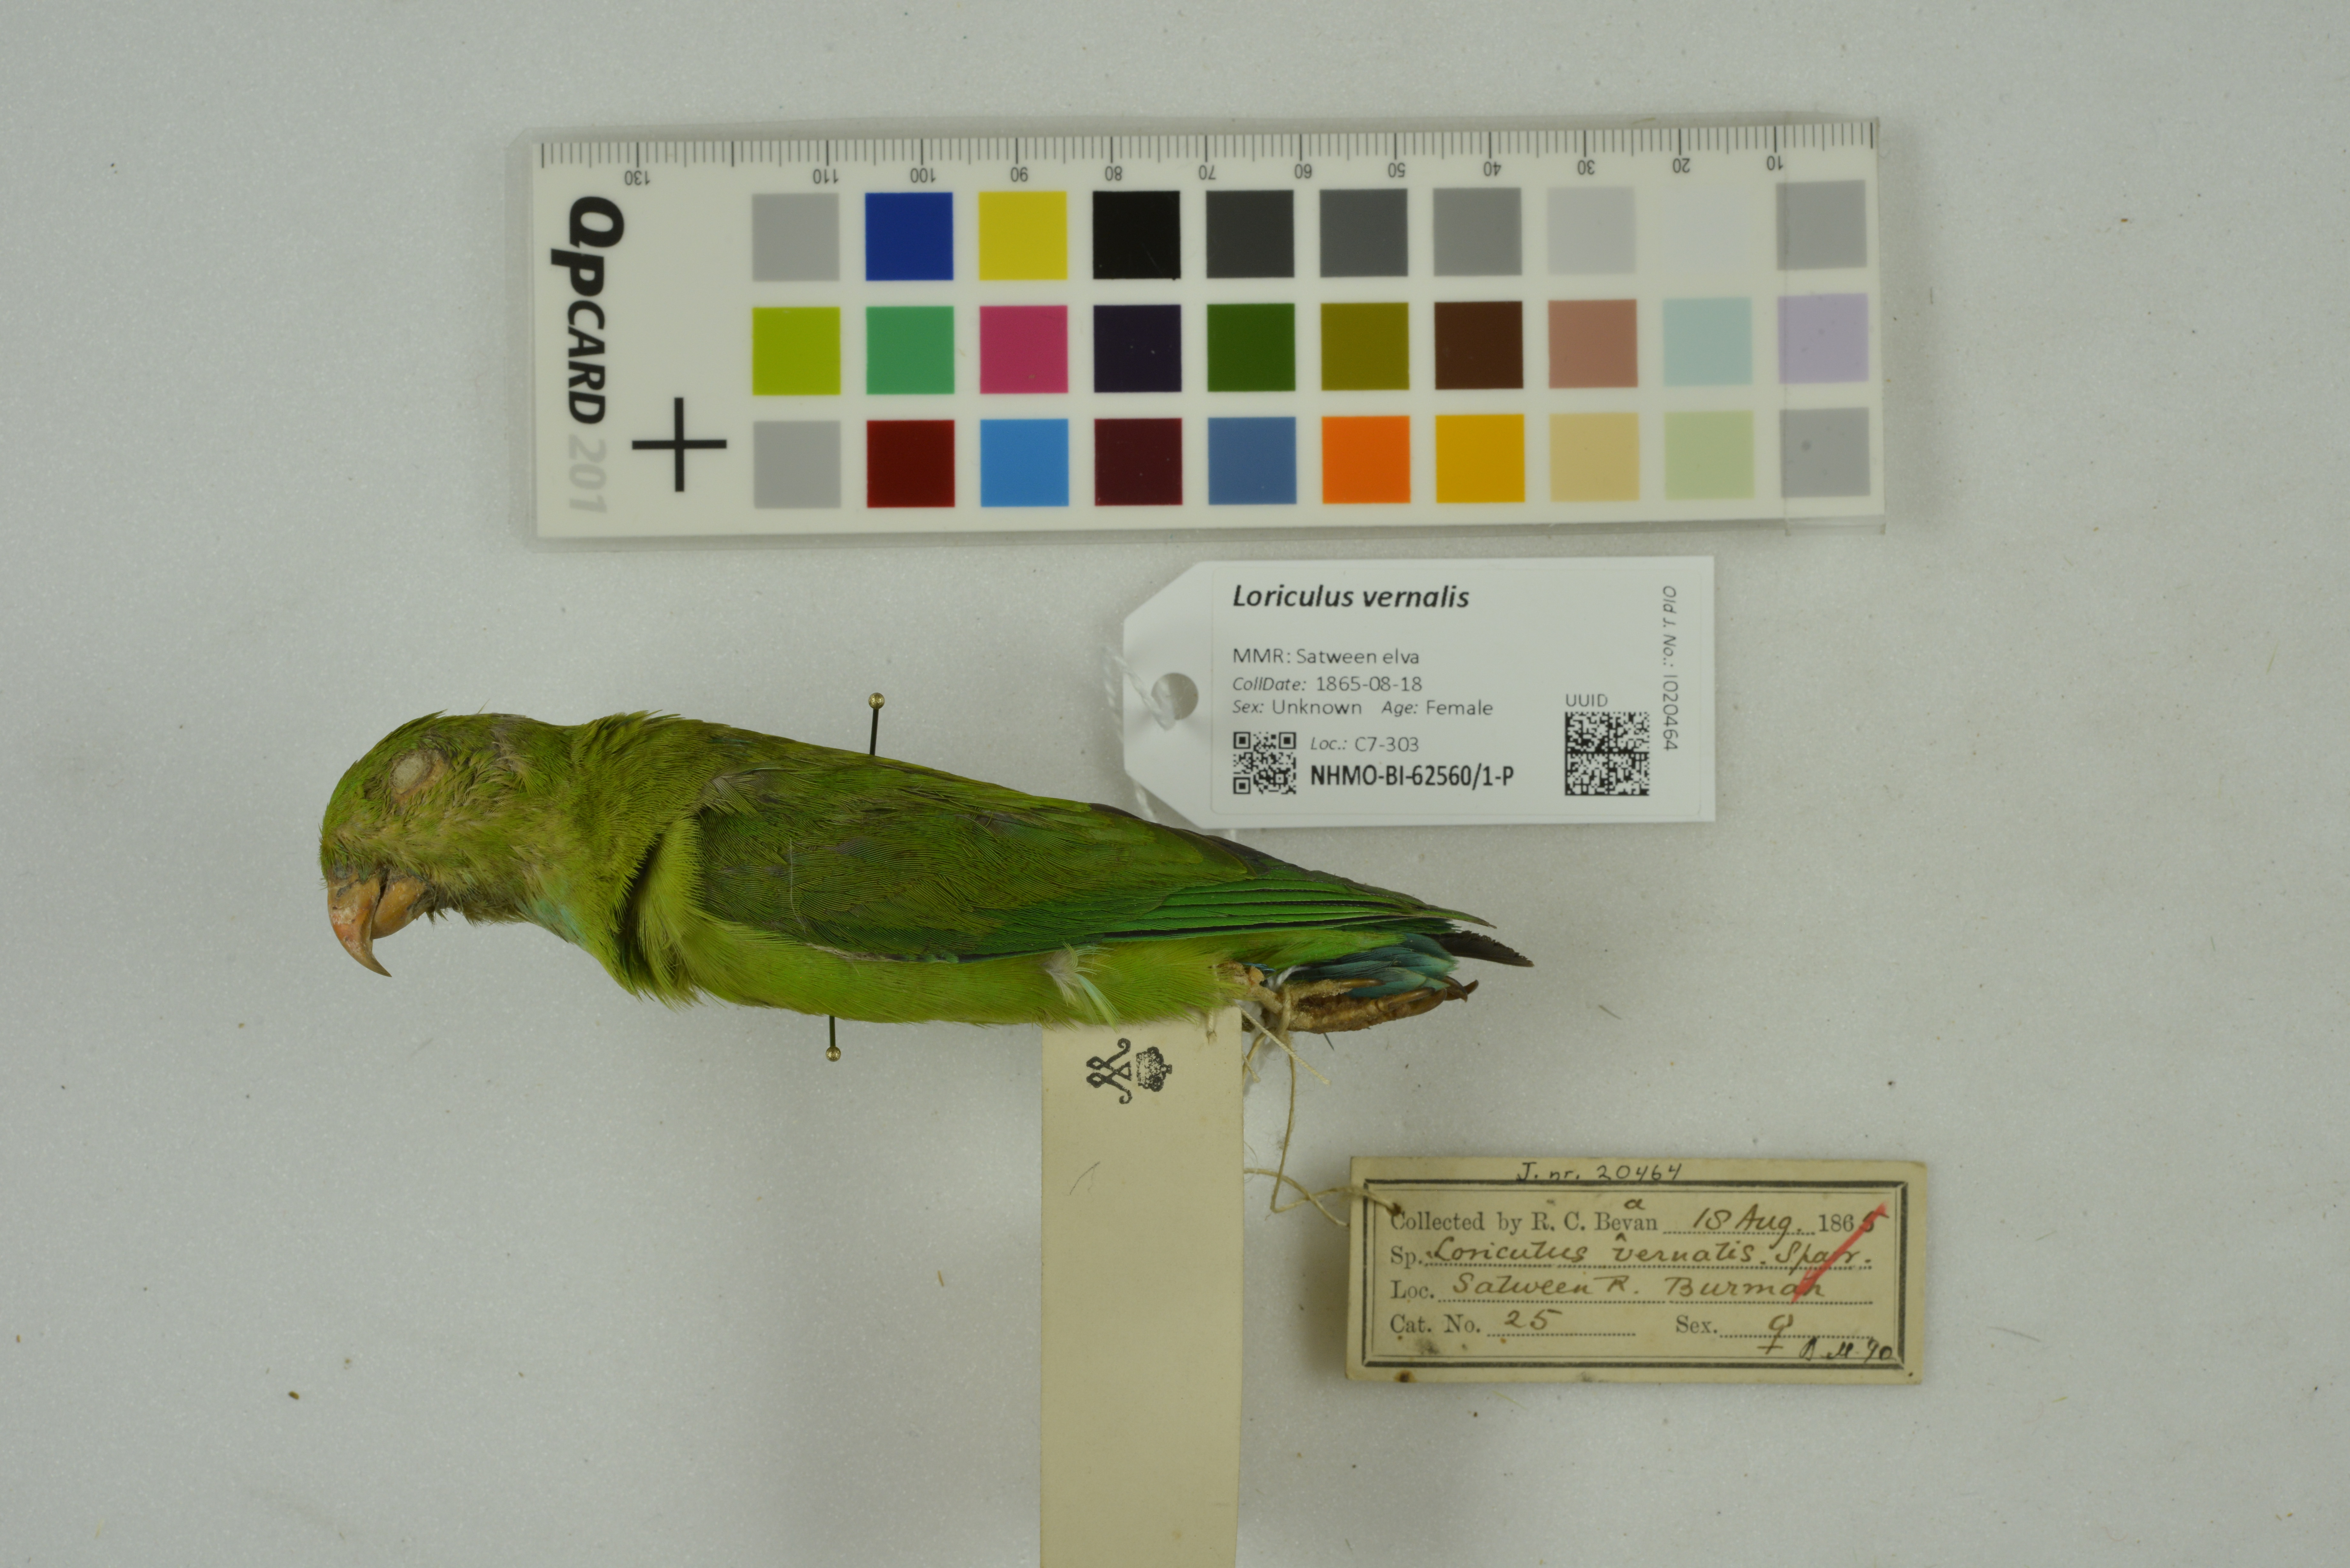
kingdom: Animalia
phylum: Chordata
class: Aves
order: Psittaciformes
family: Psittacidae
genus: Loriculus
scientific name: Loriculus vernalis
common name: Vernal hanging parrot
